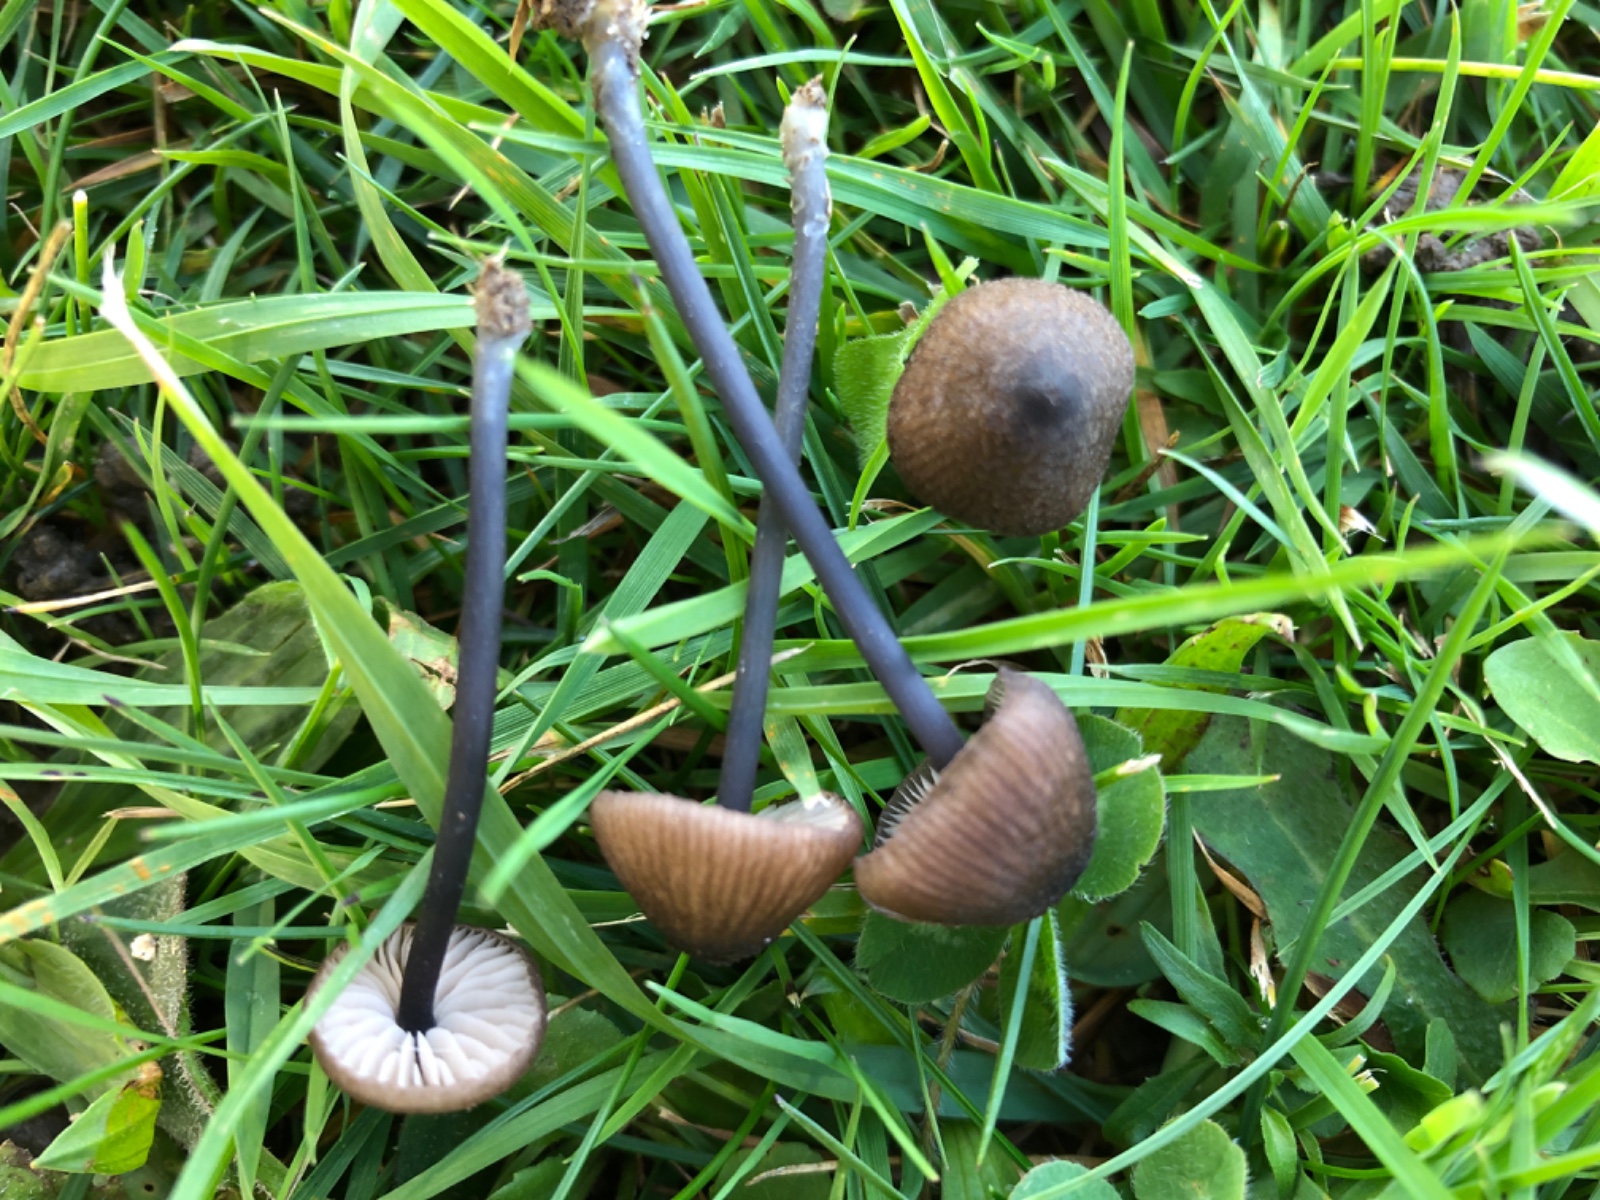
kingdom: Fungi
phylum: Basidiomycota
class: Agaricomycetes
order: Agaricales
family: Entolomataceae
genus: Entoloma
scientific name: Entoloma
